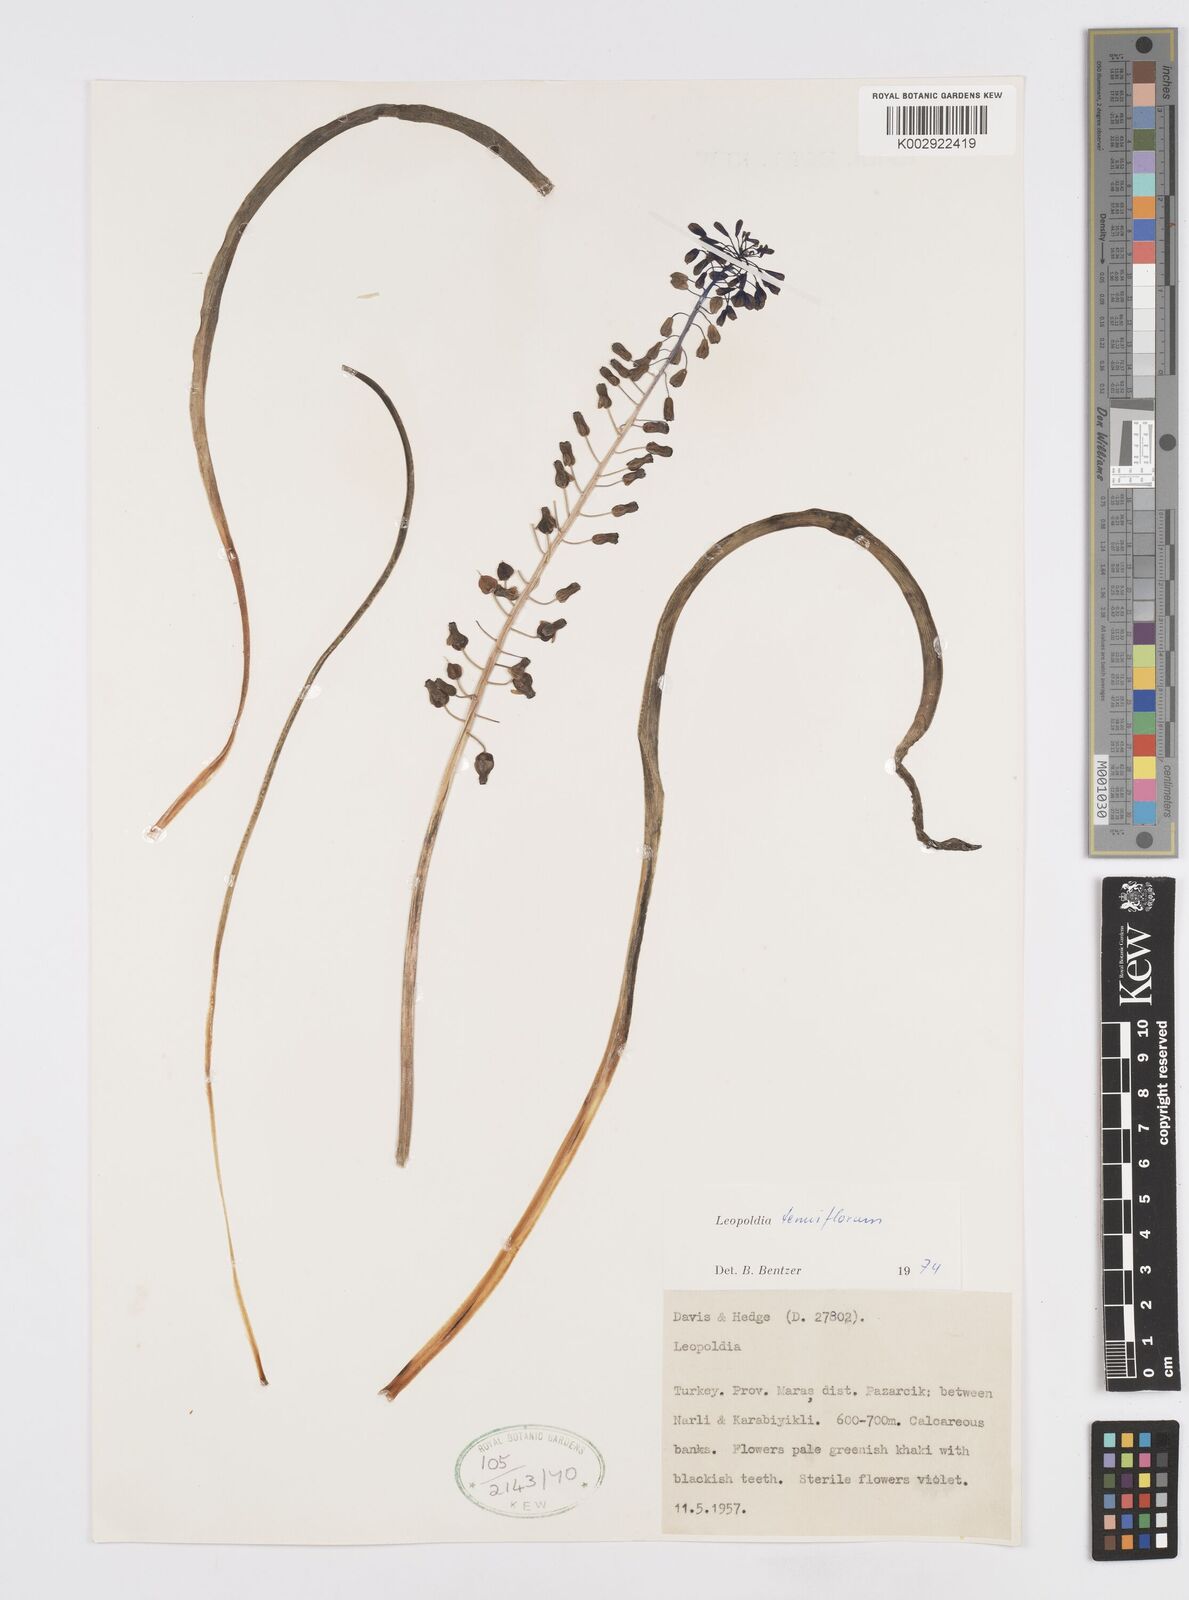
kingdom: Plantae
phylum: Tracheophyta
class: Liliopsida
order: Asparagales
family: Asparagaceae
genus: Muscari
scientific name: Muscari tenuiflorum
